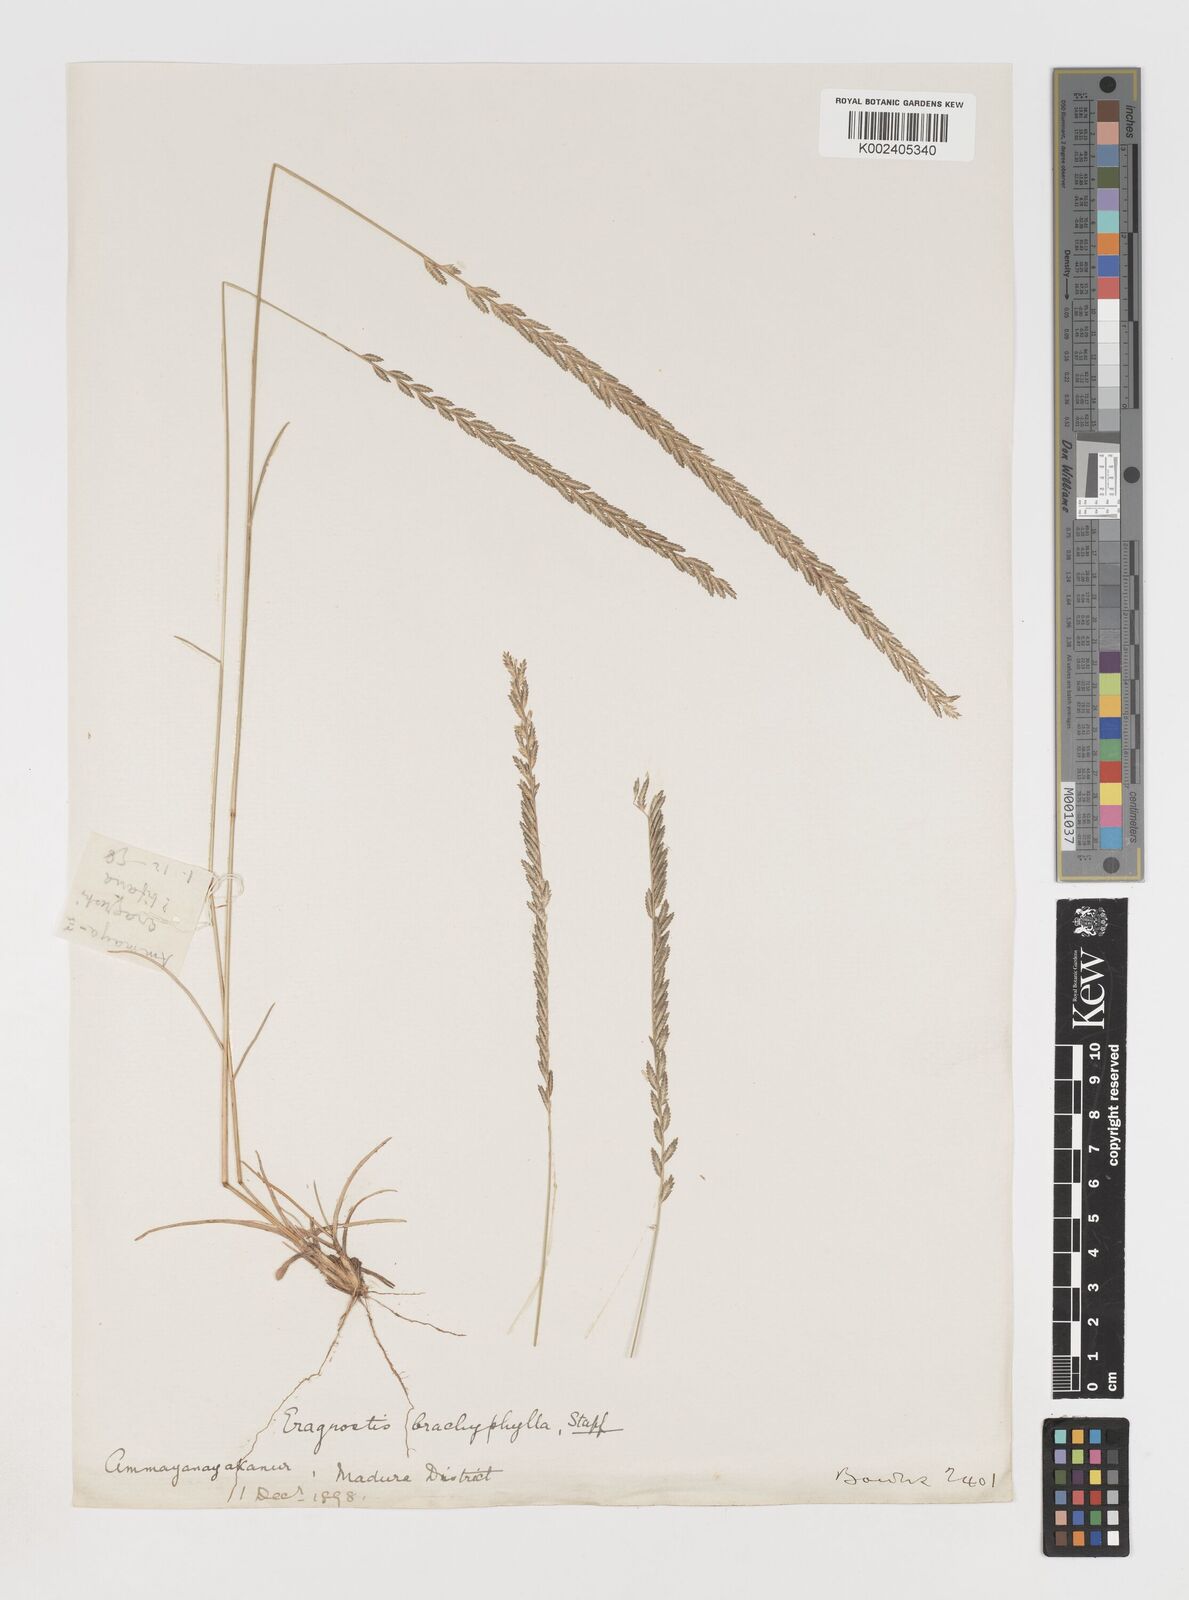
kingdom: Plantae
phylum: Tracheophyta
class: Liliopsida
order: Poales
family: Poaceae
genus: Eragrostiella
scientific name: Eragrostiella bifaria
